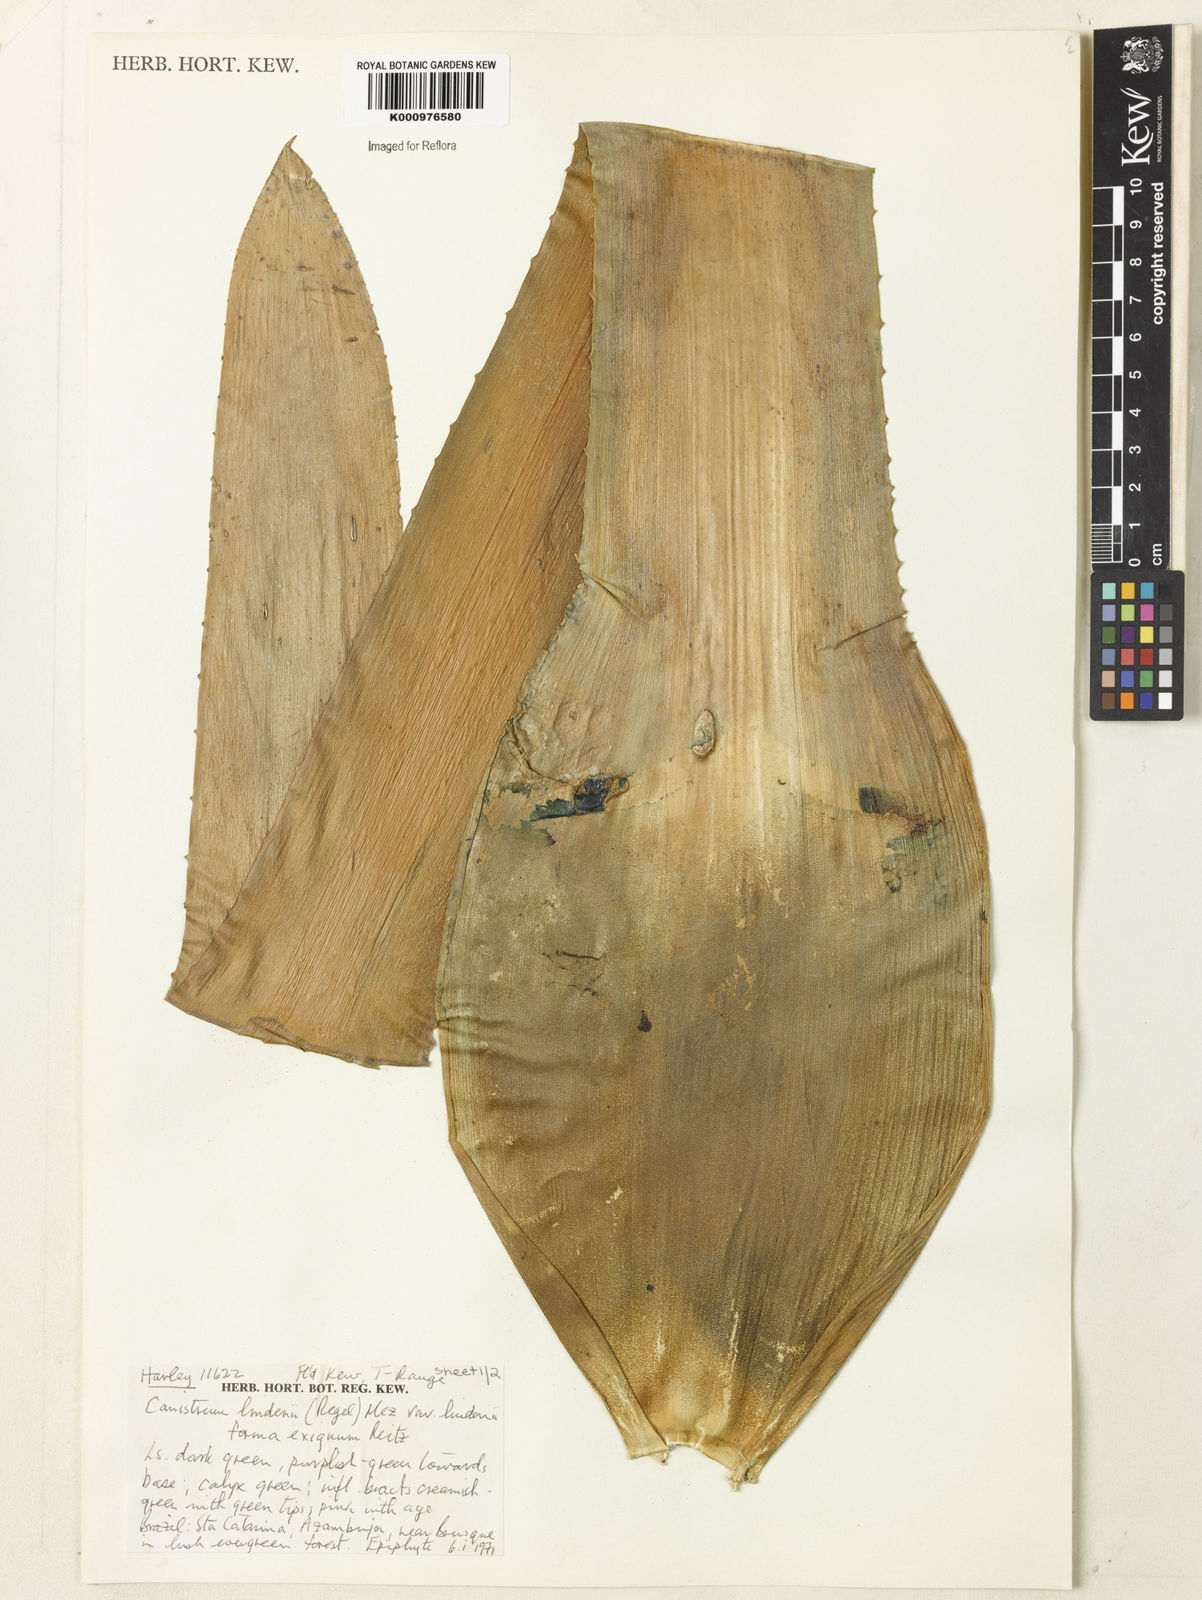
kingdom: Plantae
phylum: Tracheophyta
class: Liliopsida
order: Poales
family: Bromeliaceae
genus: Hohenbergia
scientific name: Hohenbergia augusta
